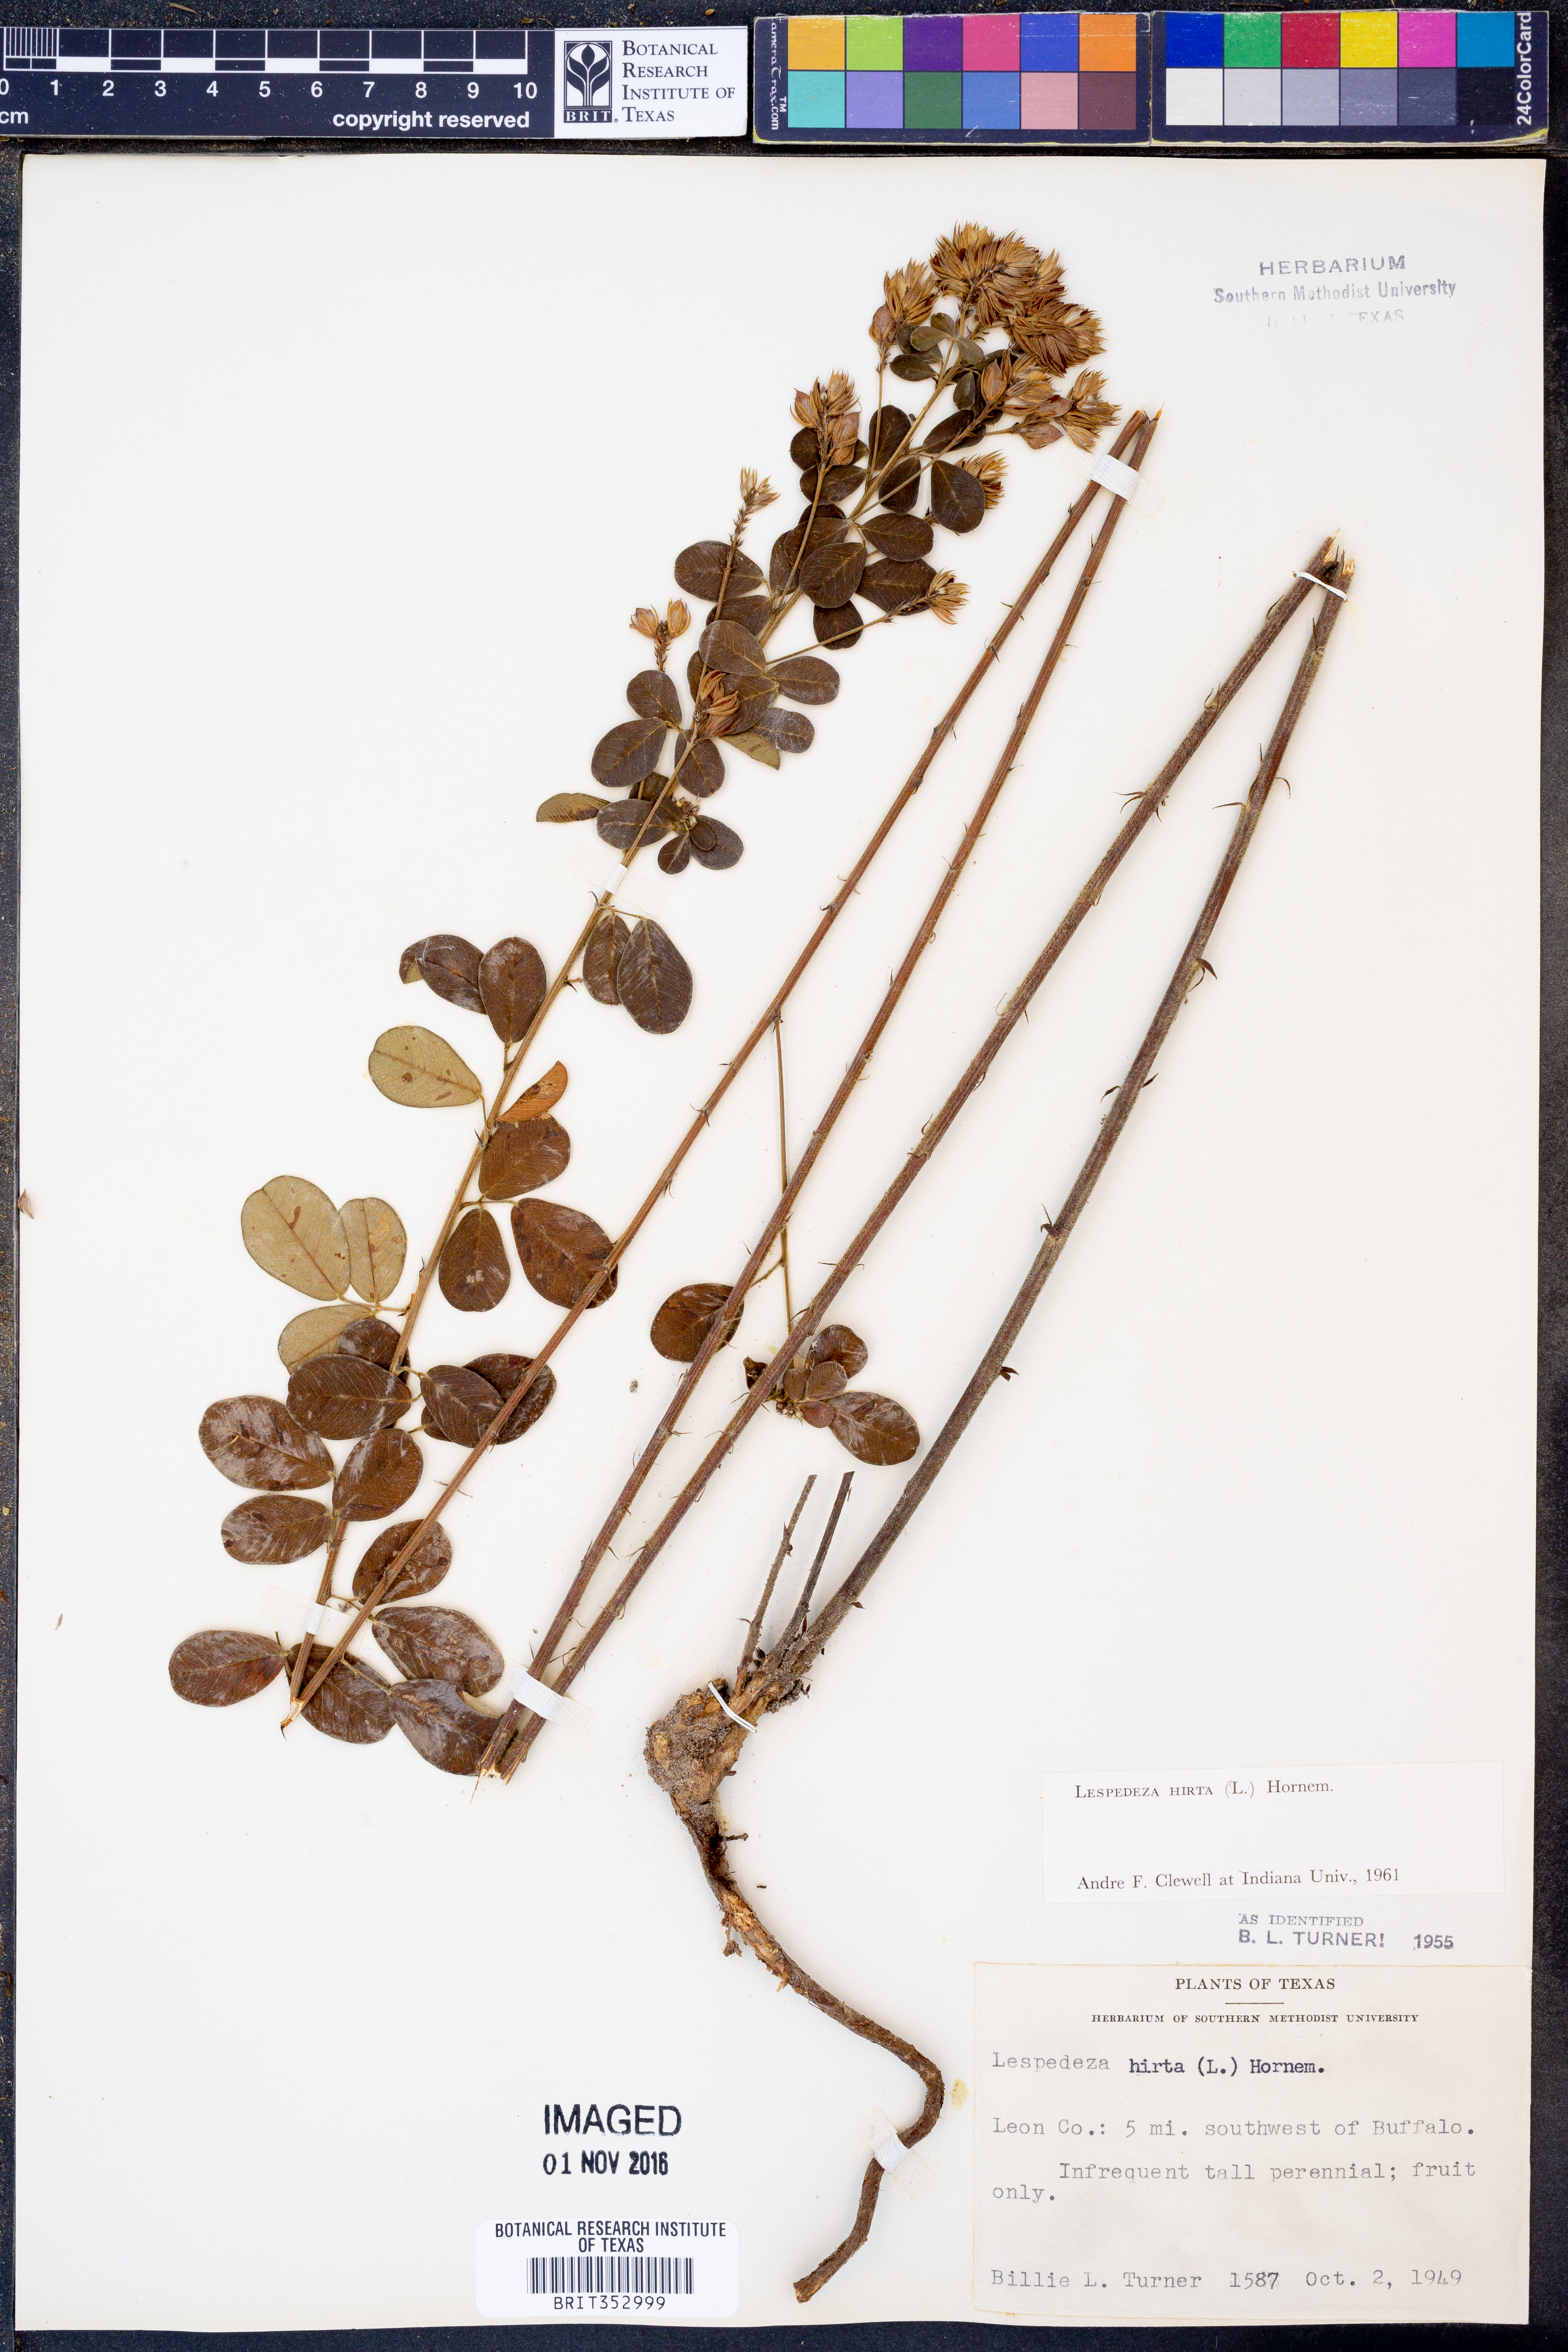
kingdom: Plantae
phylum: Tracheophyta
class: Magnoliopsida
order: Fabales
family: Fabaceae
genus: Lespedeza
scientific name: Lespedeza hirta
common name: Hairy lespedeza
